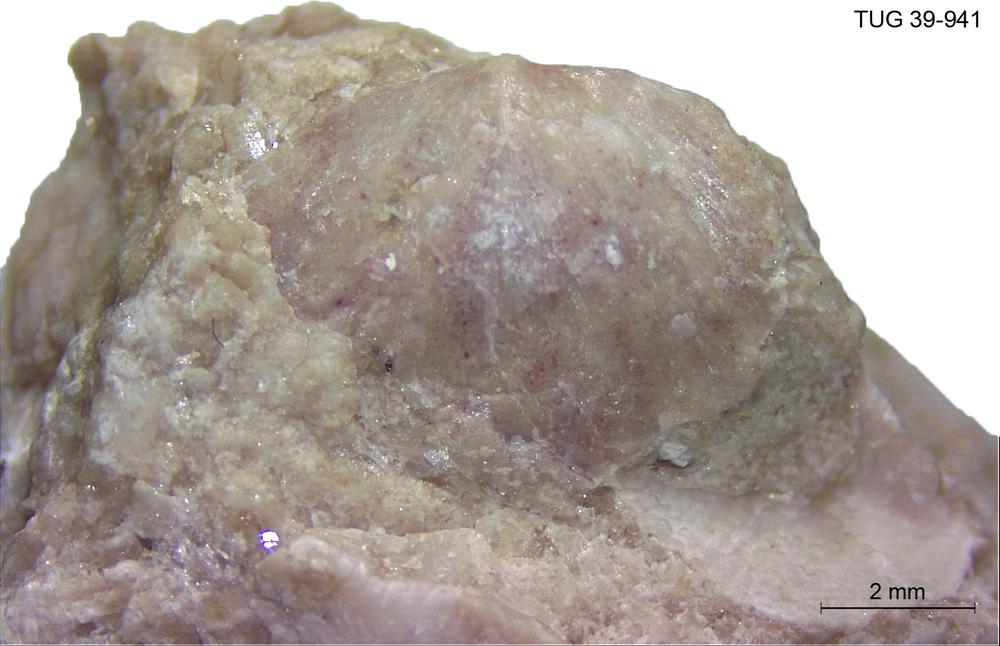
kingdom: Animalia
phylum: Brachiopoda
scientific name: Brachiopoda
